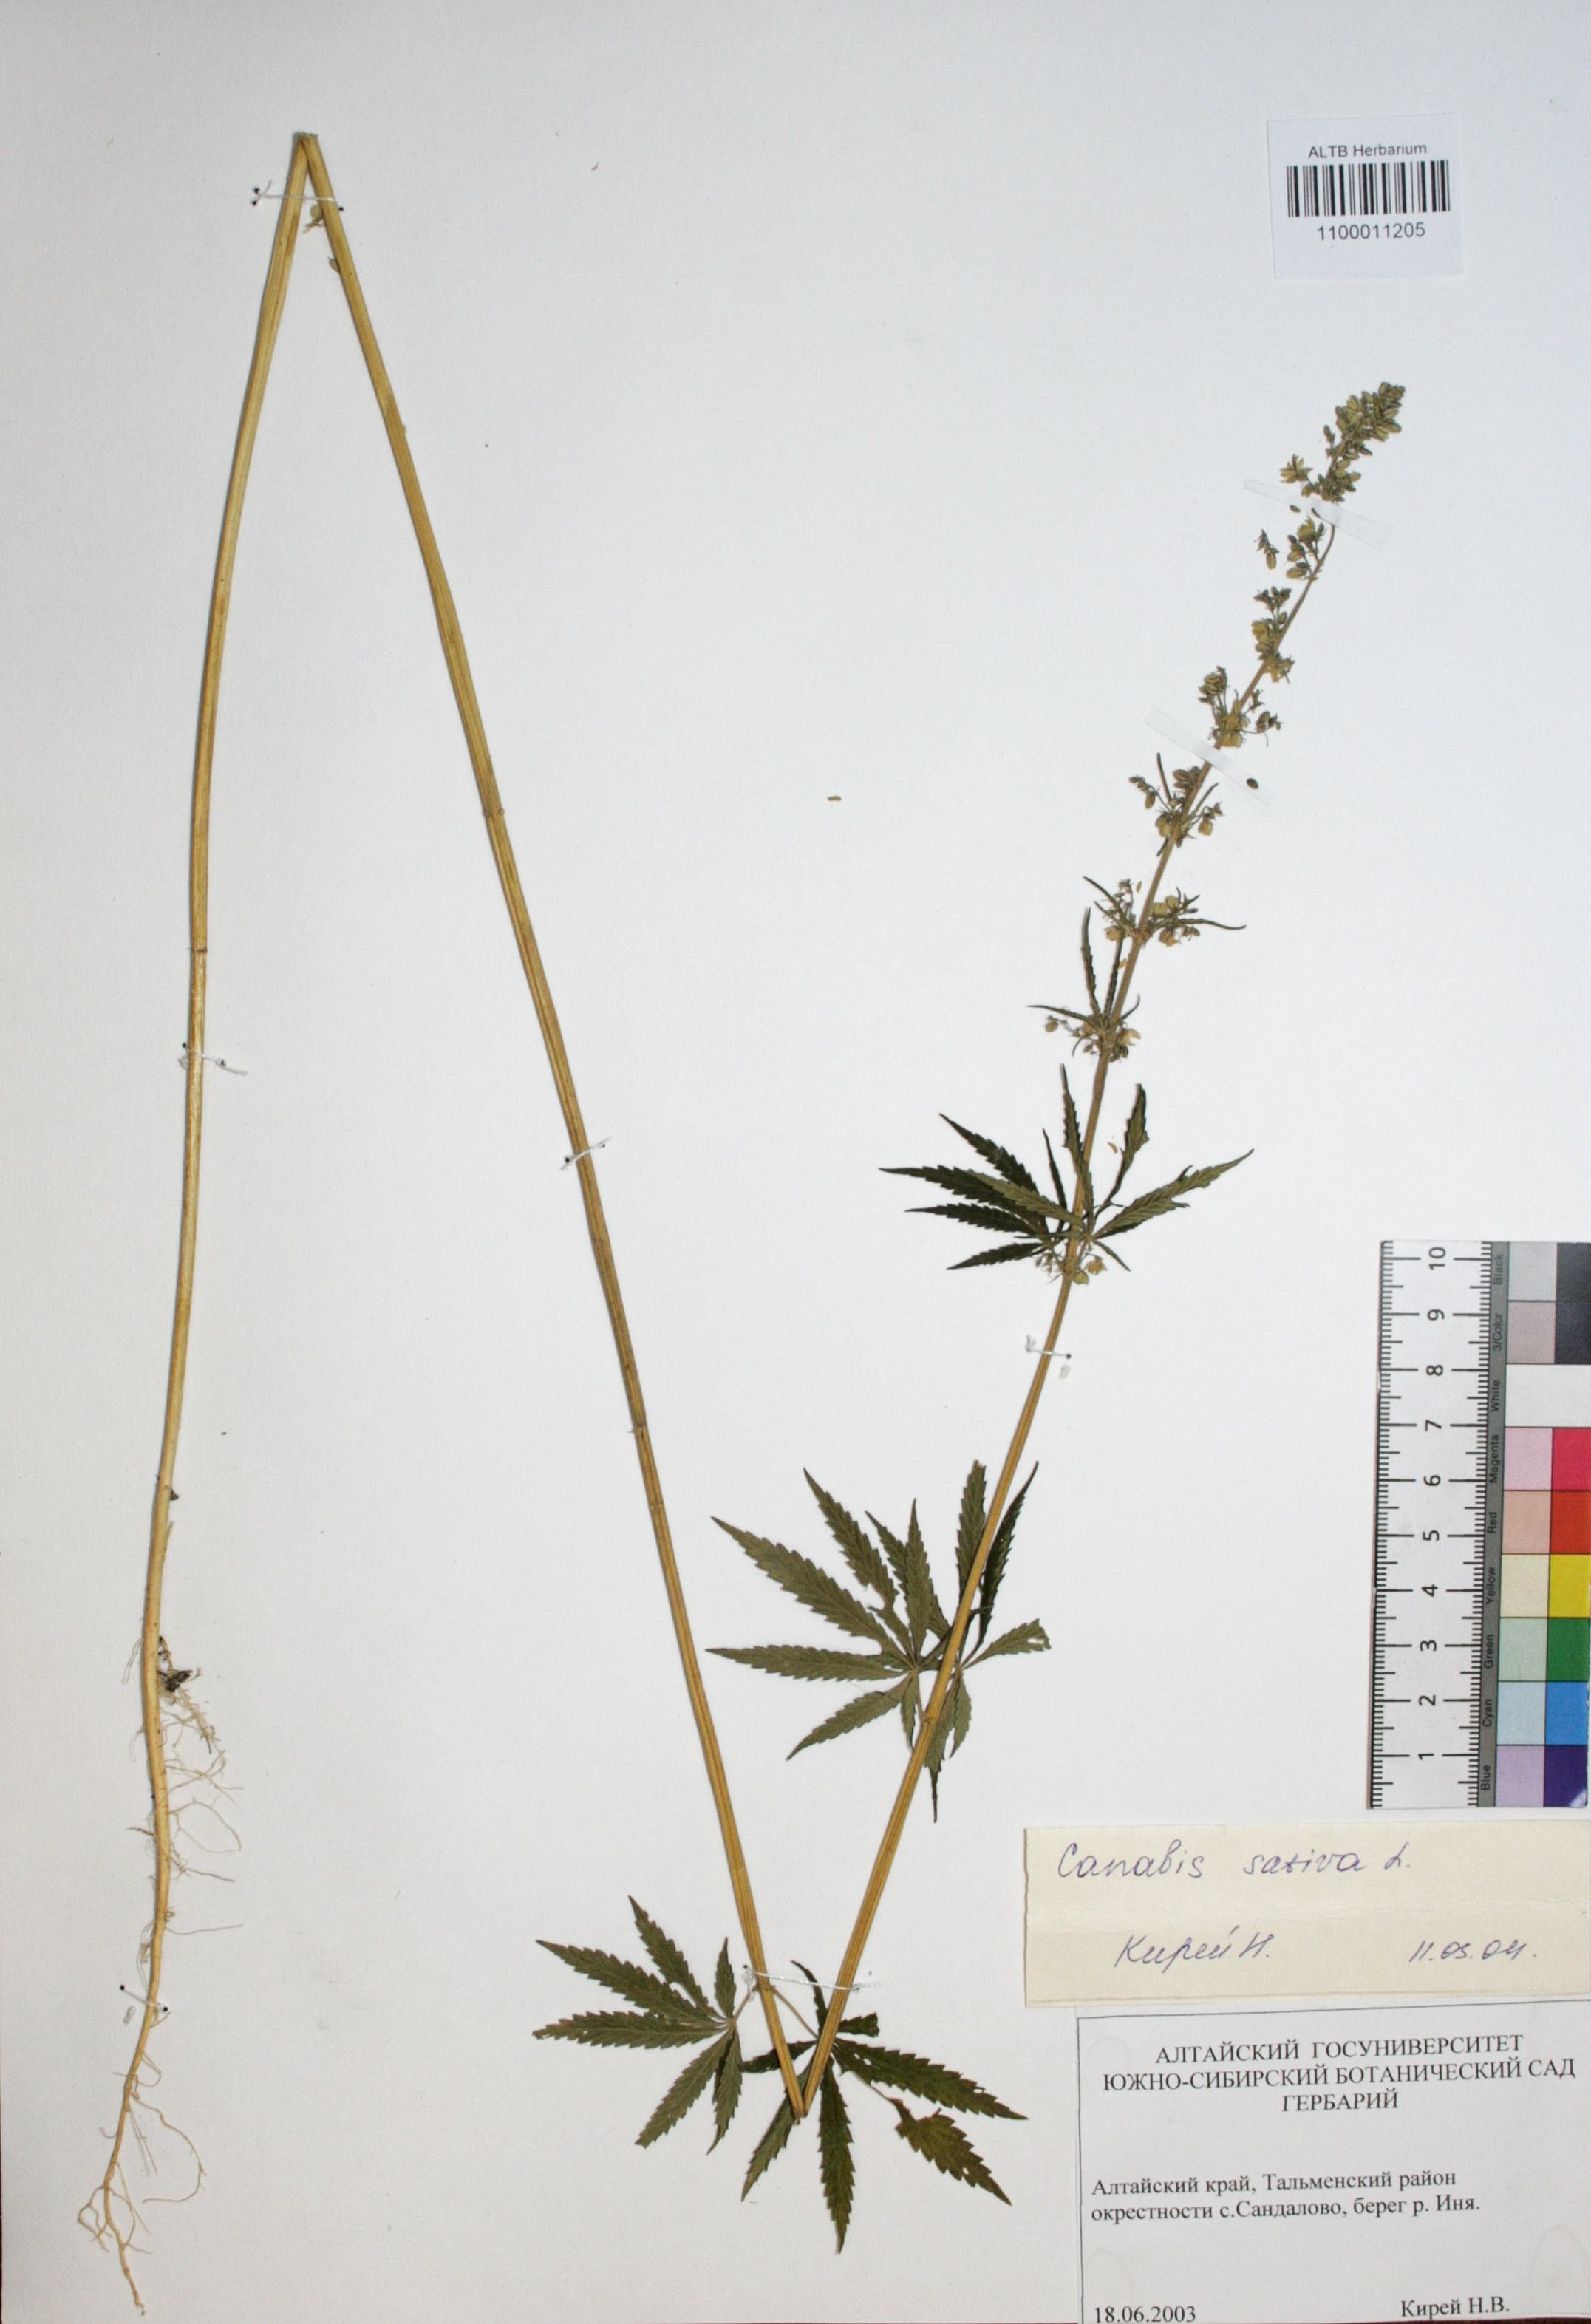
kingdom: Plantae
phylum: Tracheophyta
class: Magnoliopsida
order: Rosales
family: Cannabaceae
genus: Cannabis
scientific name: Cannabis sativa
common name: Hemp
